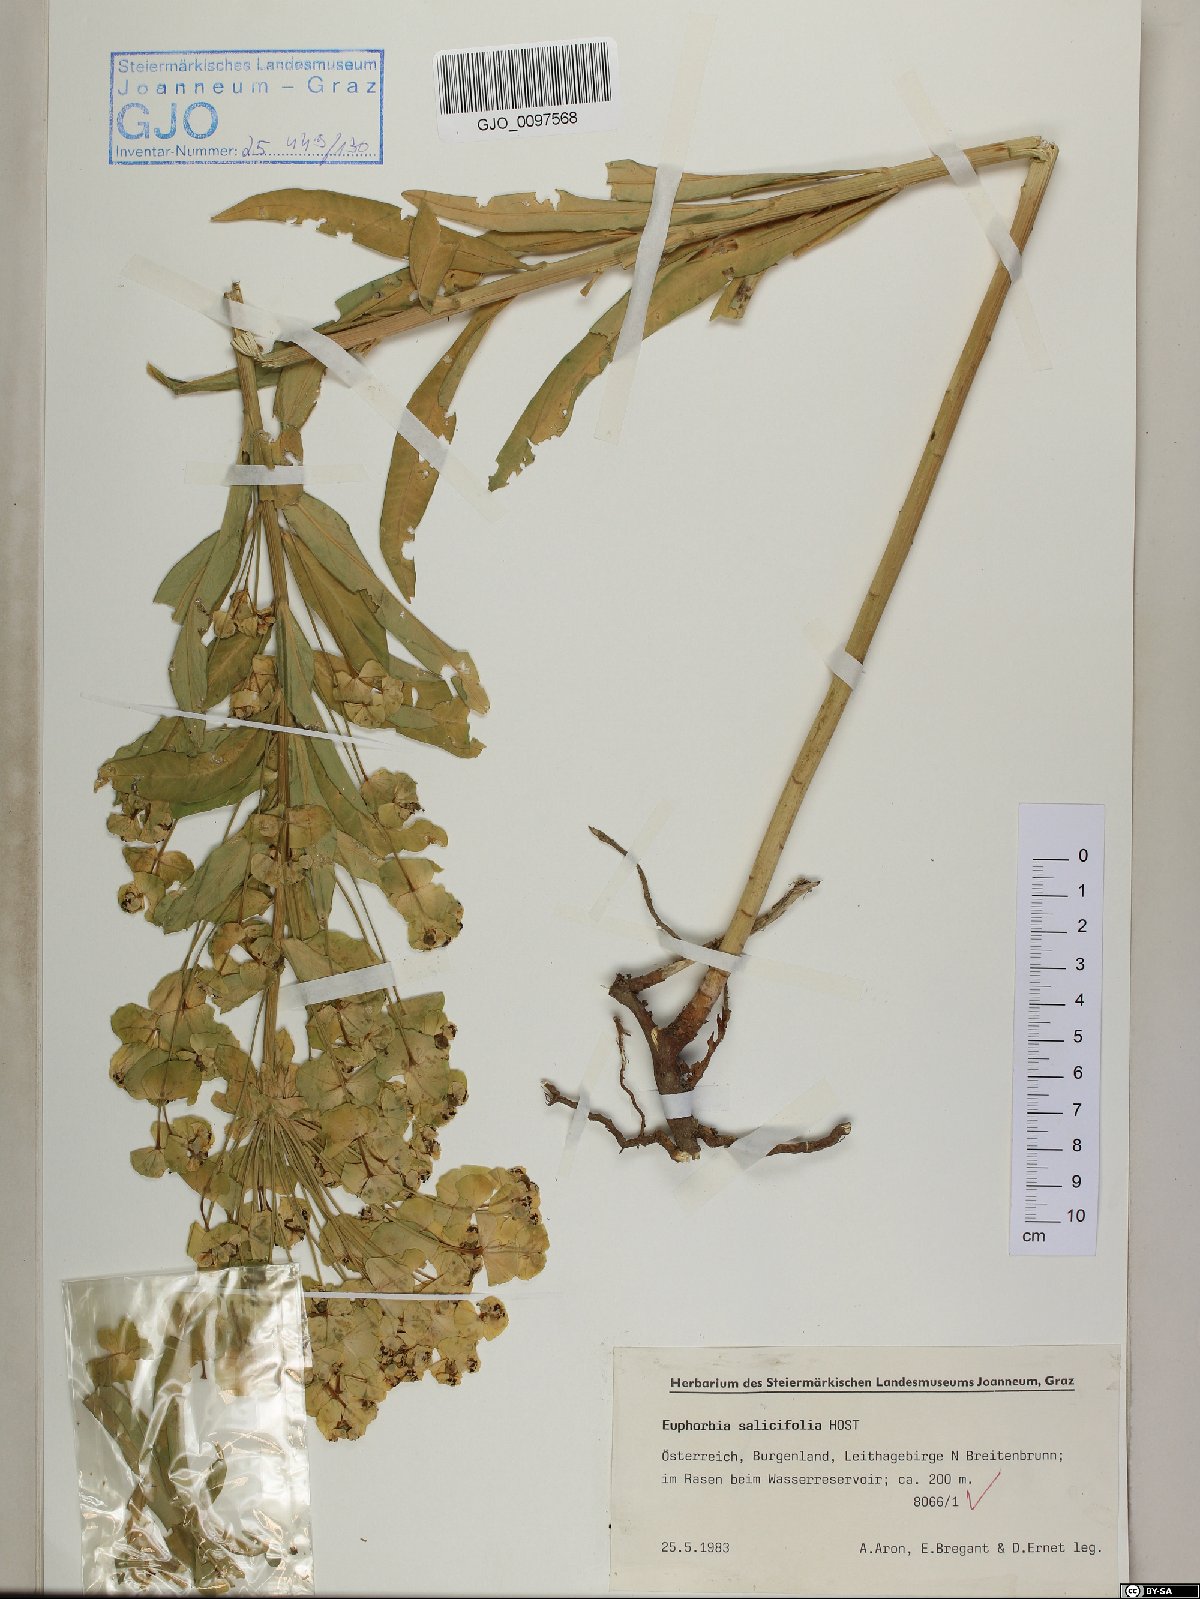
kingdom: Plantae
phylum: Tracheophyta
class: Magnoliopsida
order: Malpighiales
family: Euphorbiaceae
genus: Euphorbia
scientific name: Euphorbia salicifolia
